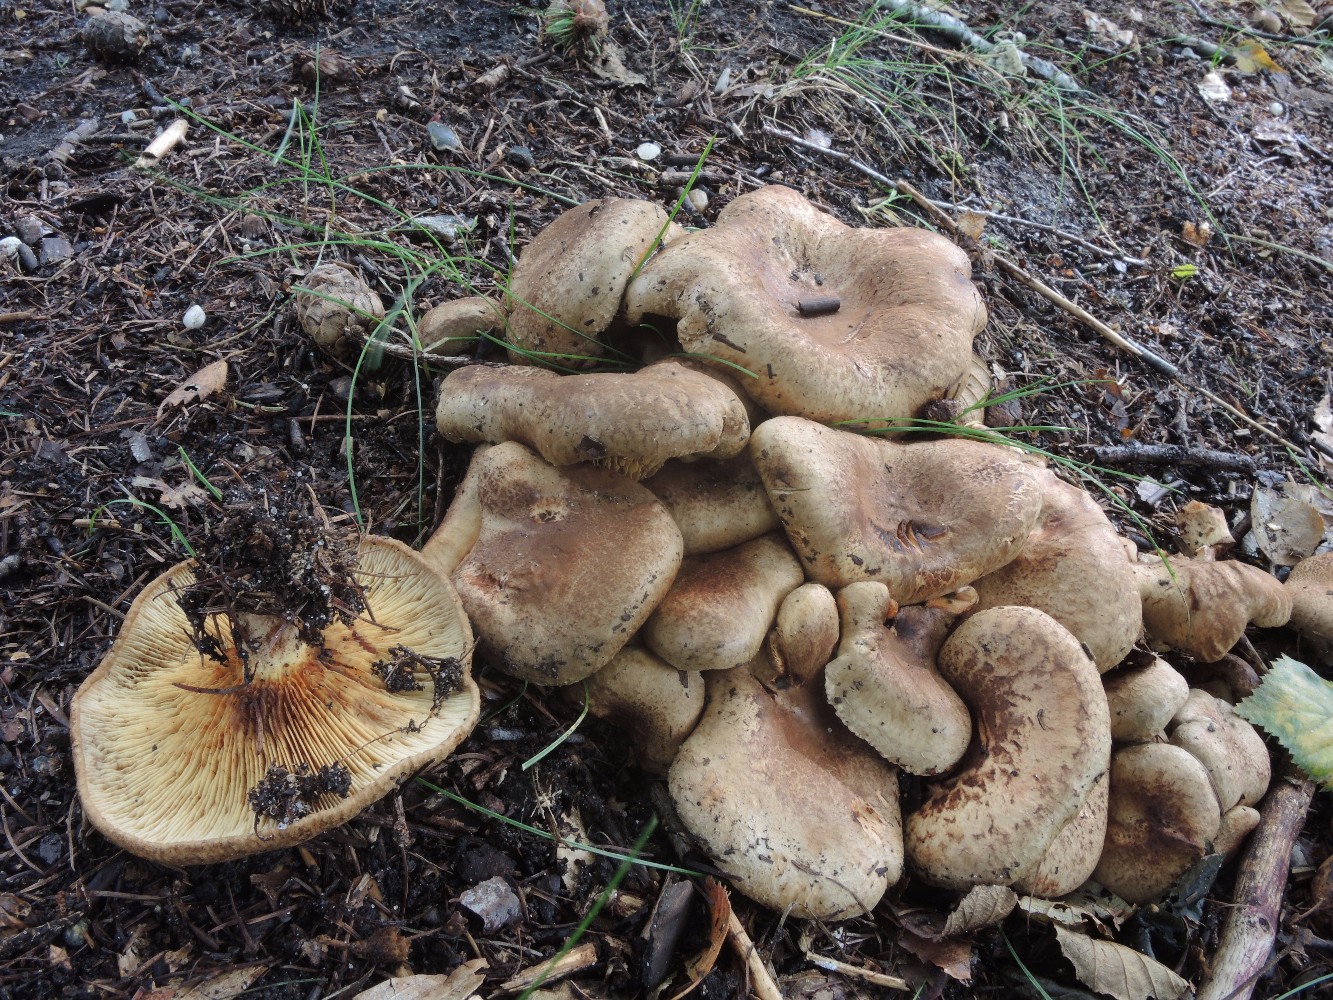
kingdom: Fungi
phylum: Basidiomycota
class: Agaricomycetes
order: Boletales
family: Paxillaceae
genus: Paxillus
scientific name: Paxillus rubicundulus
